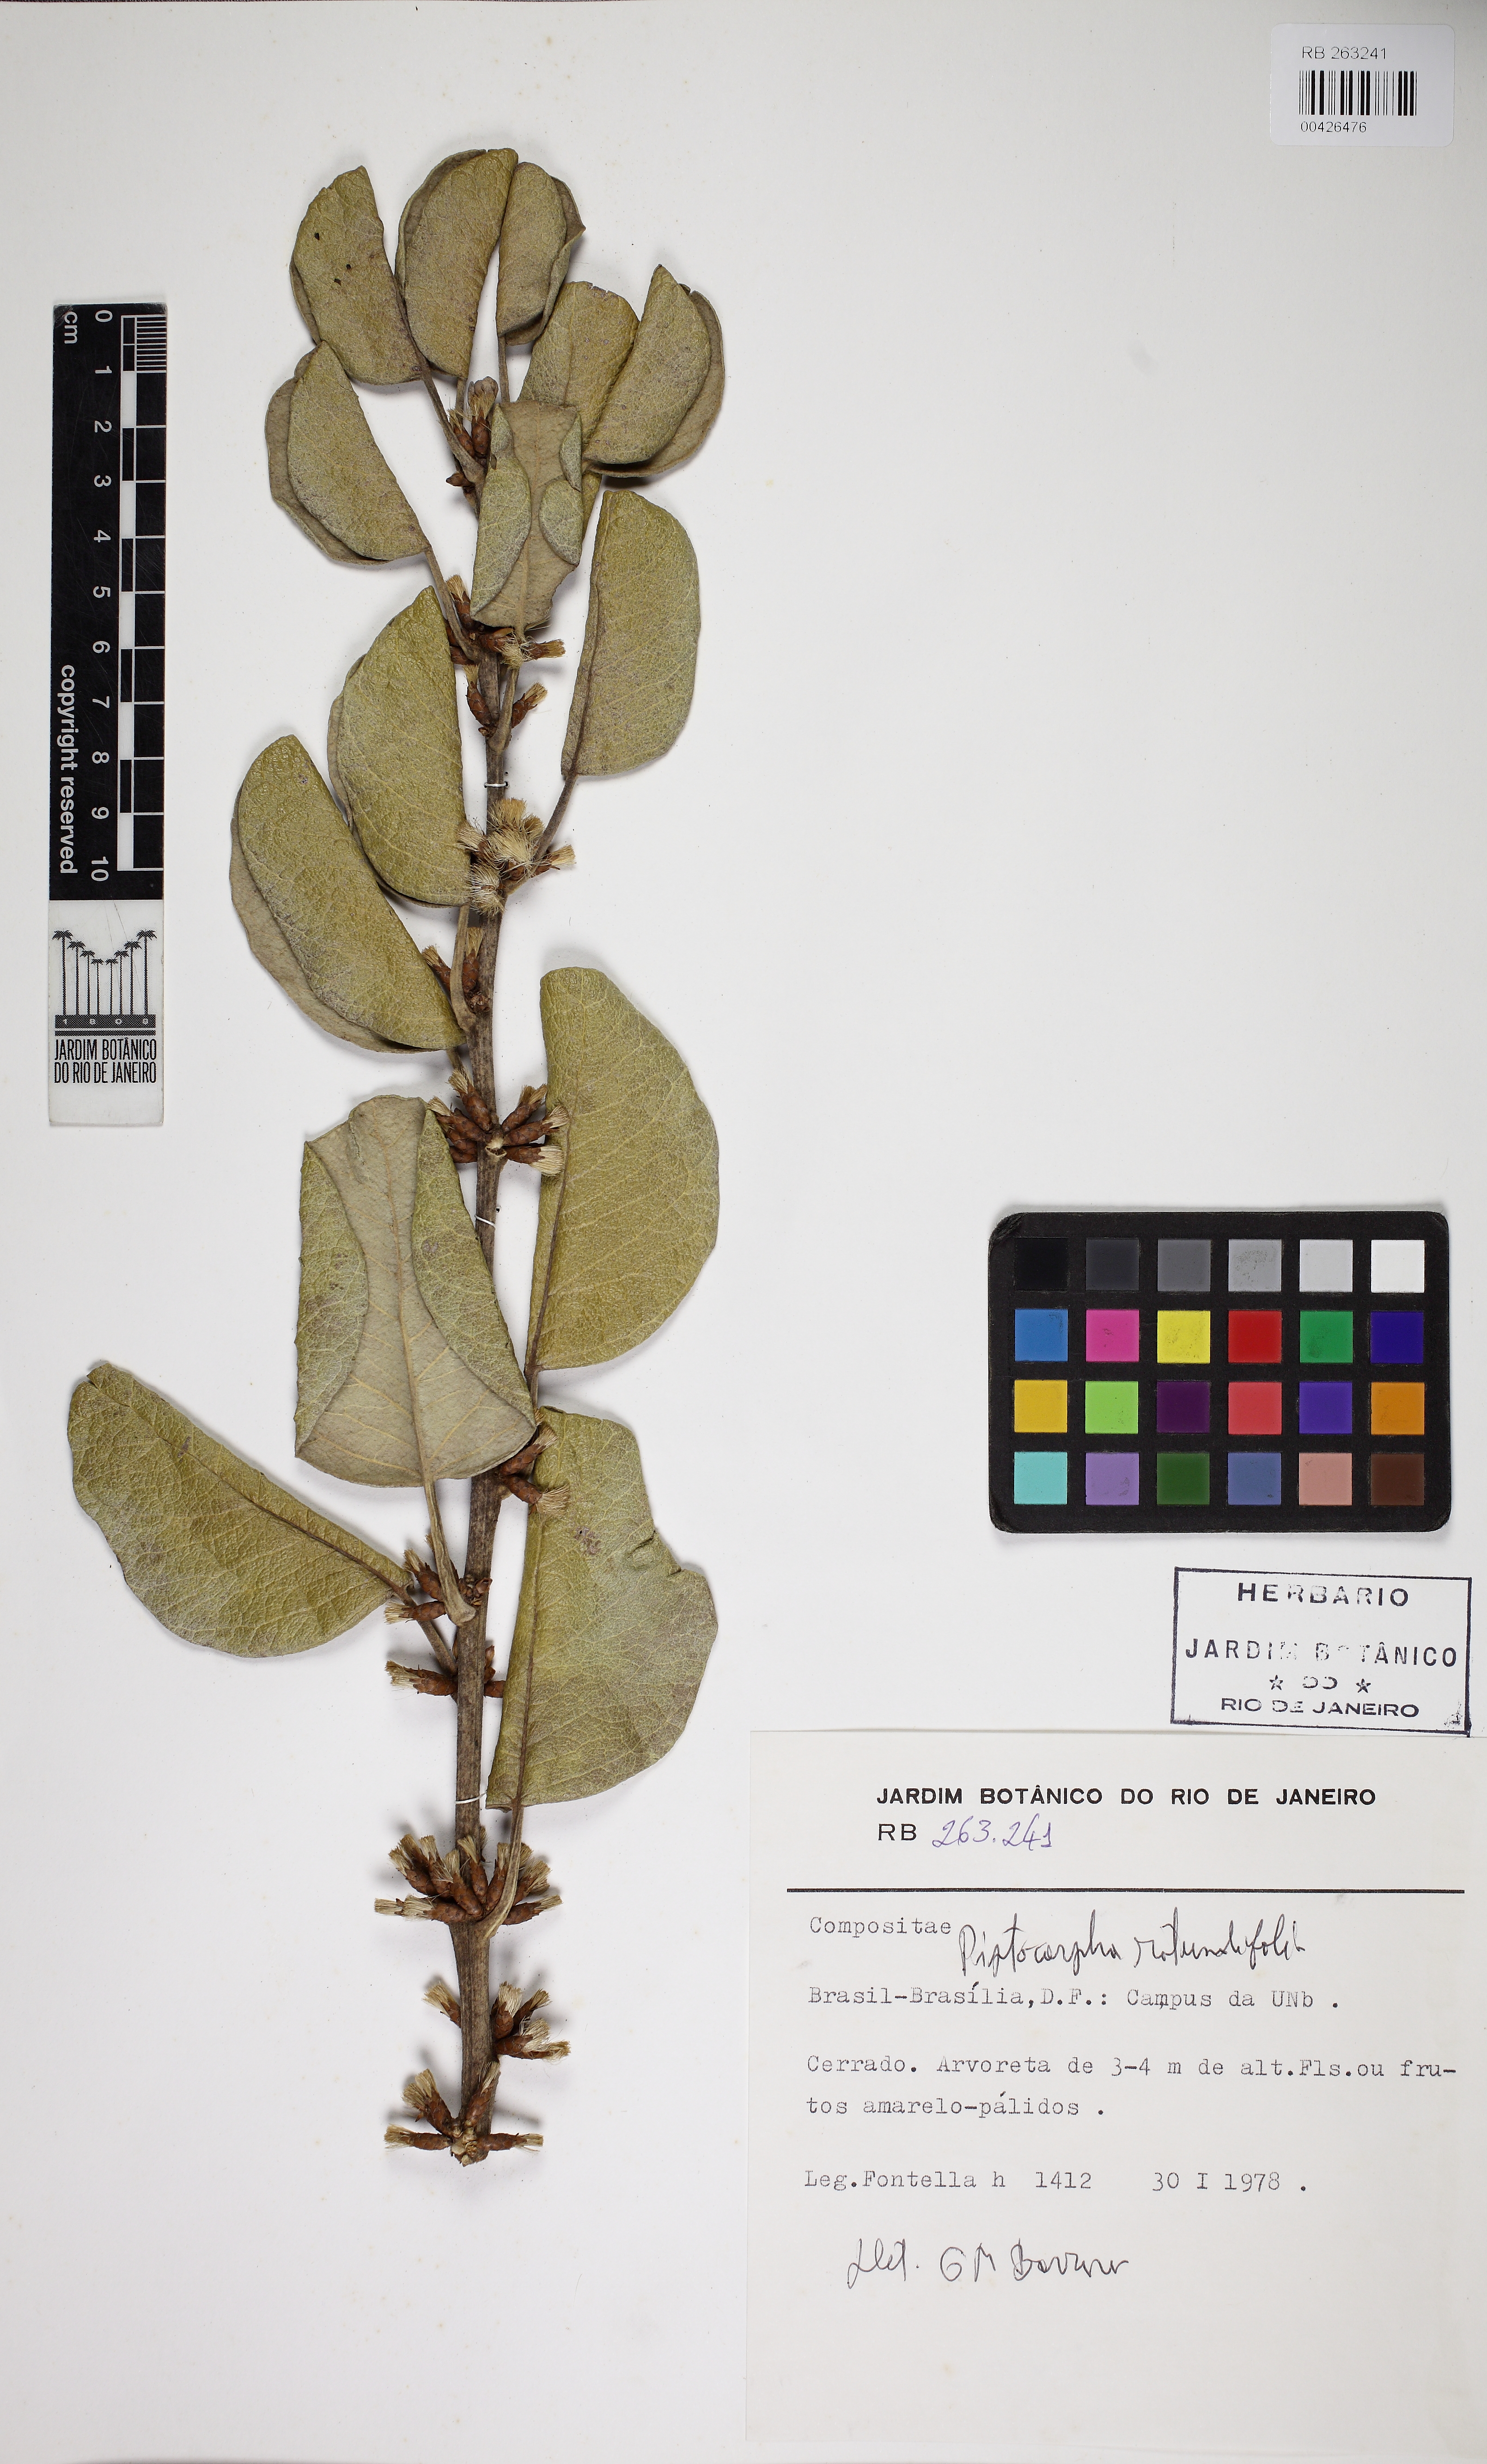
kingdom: Plantae
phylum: Tracheophyta
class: Magnoliopsida
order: Asterales
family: Asteraceae
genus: Piptocarpha
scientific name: Piptocarpha rotundifolia
